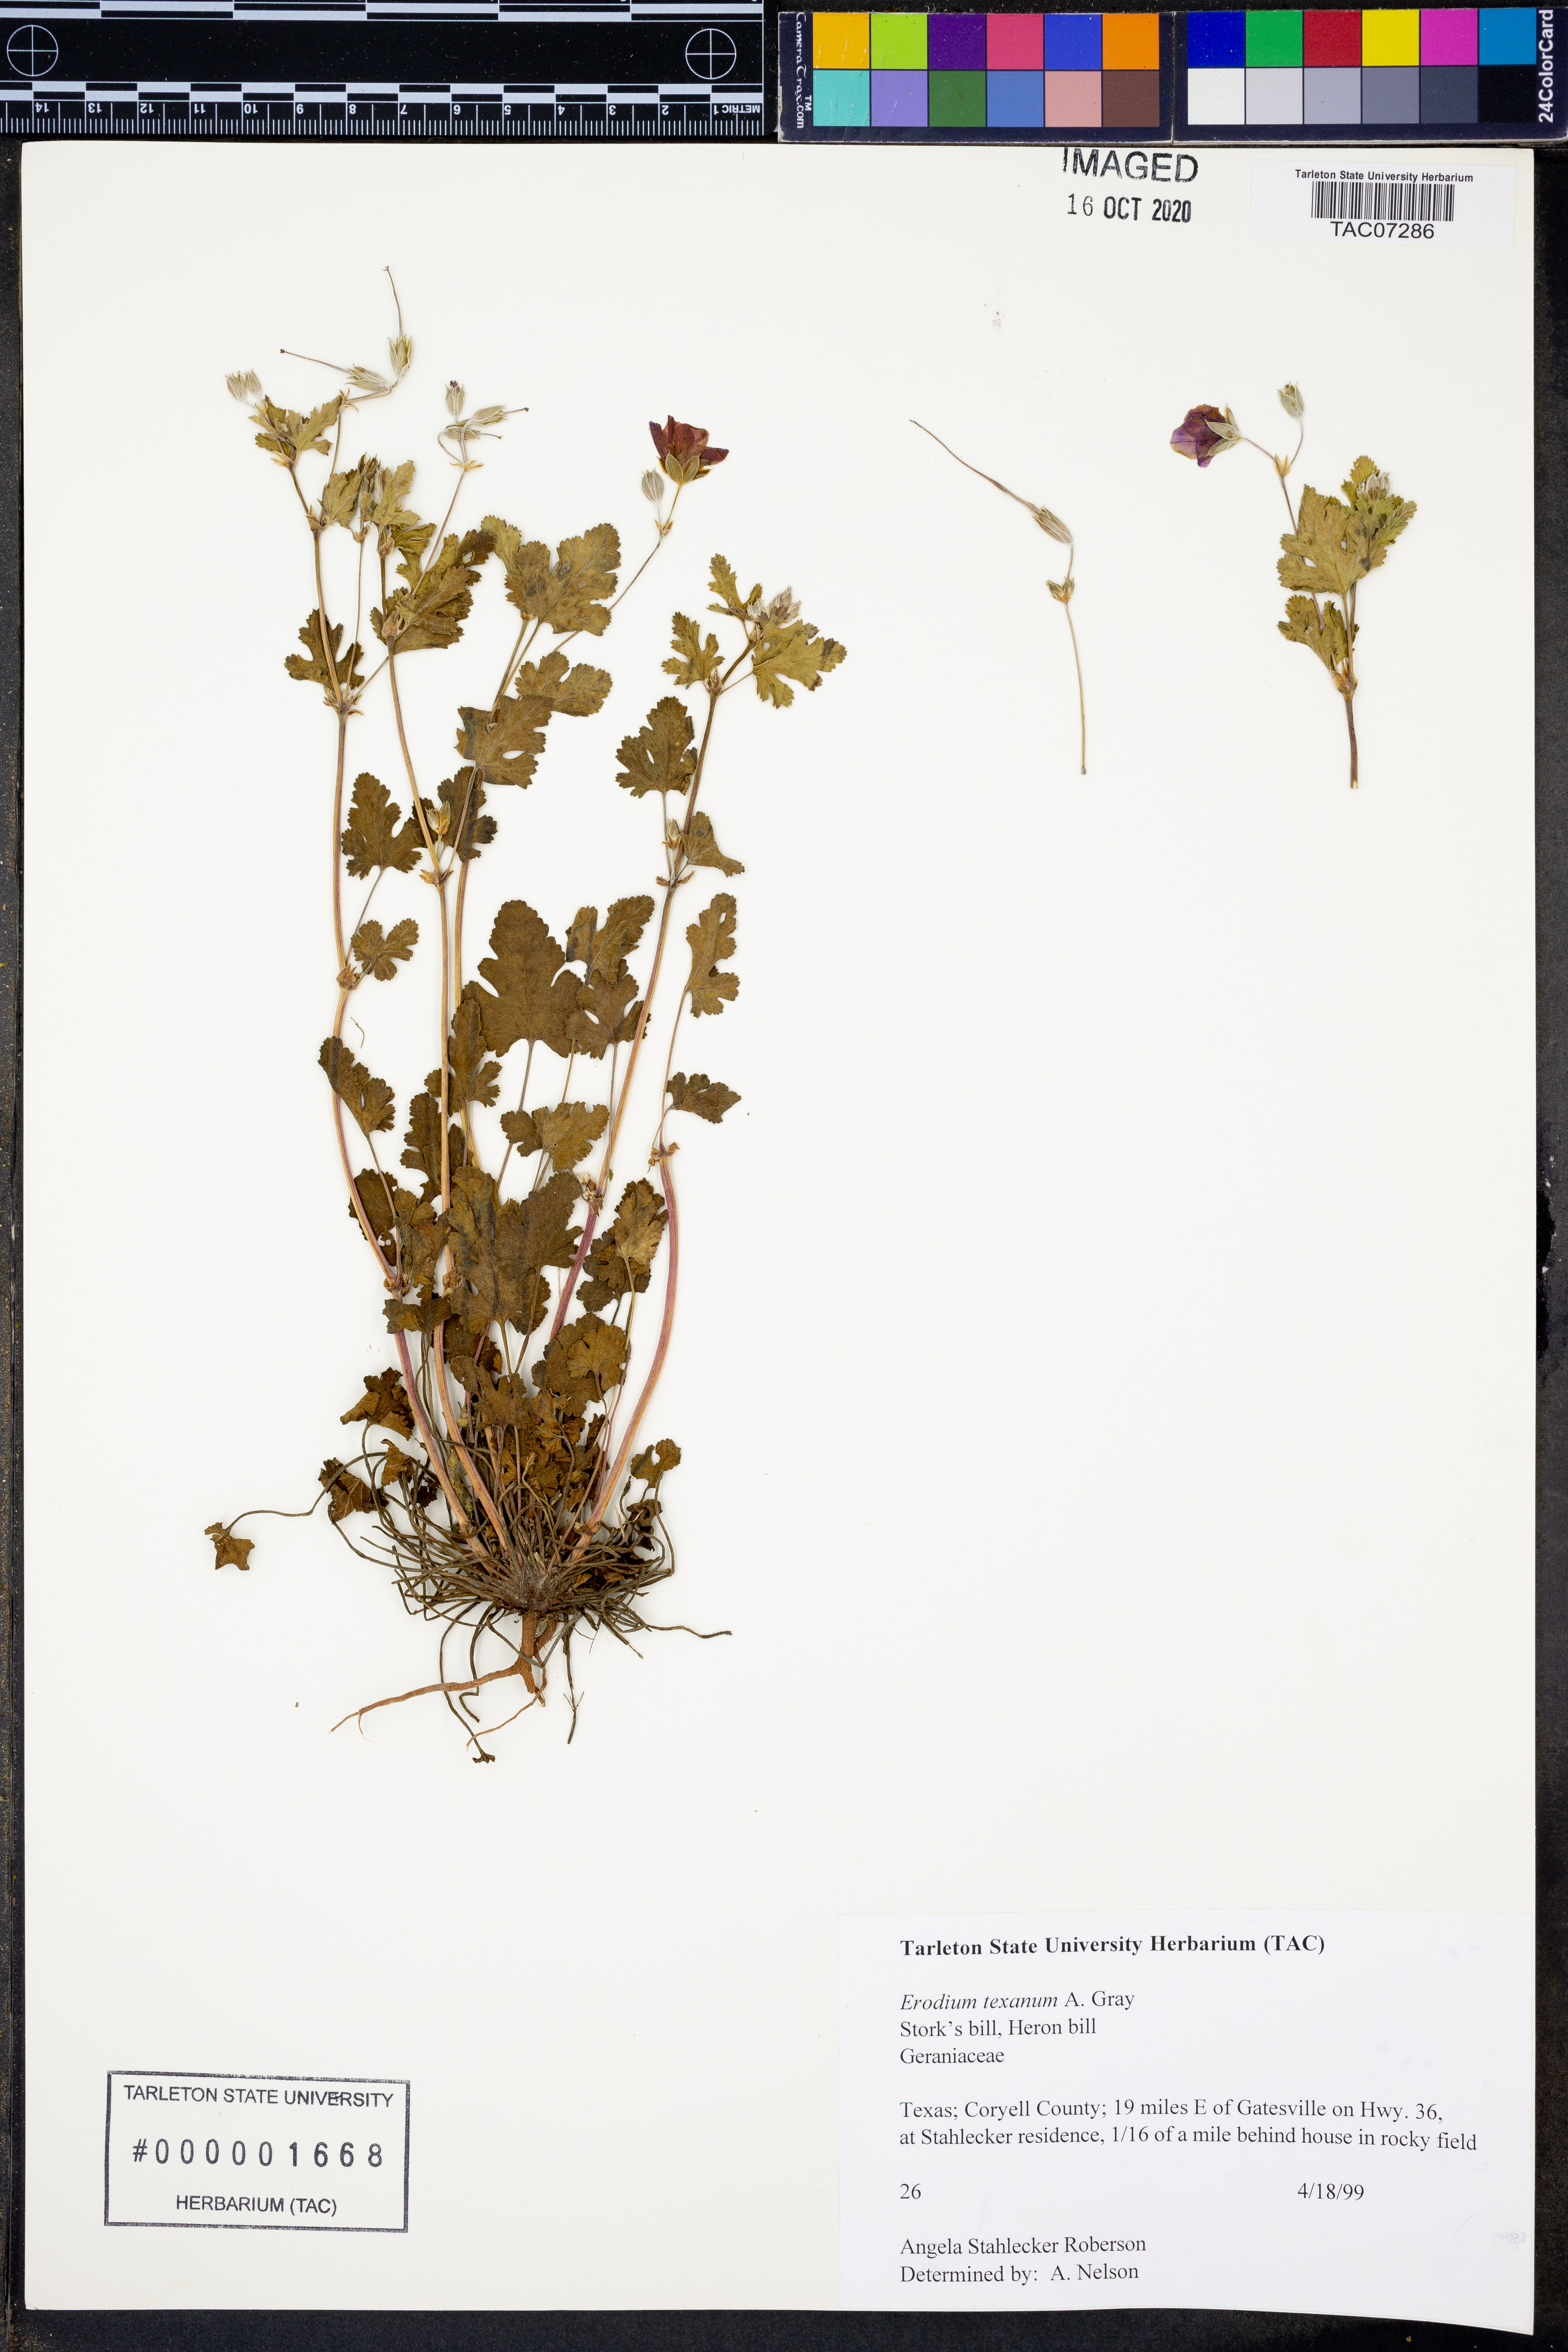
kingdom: Plantae
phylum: Tracheophyta
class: Magnoliopsida
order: Geraniales
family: Geraniaceae
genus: Erodium
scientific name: Erodium texanum
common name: Texas stork's-bill
